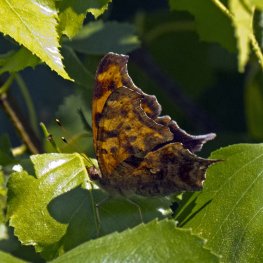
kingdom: Animalia
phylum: Arthropoda
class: Insecta
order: Lepidoptera
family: Nymphalidae
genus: Polygonia
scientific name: Polygonia interrogationis
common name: Question Mark
